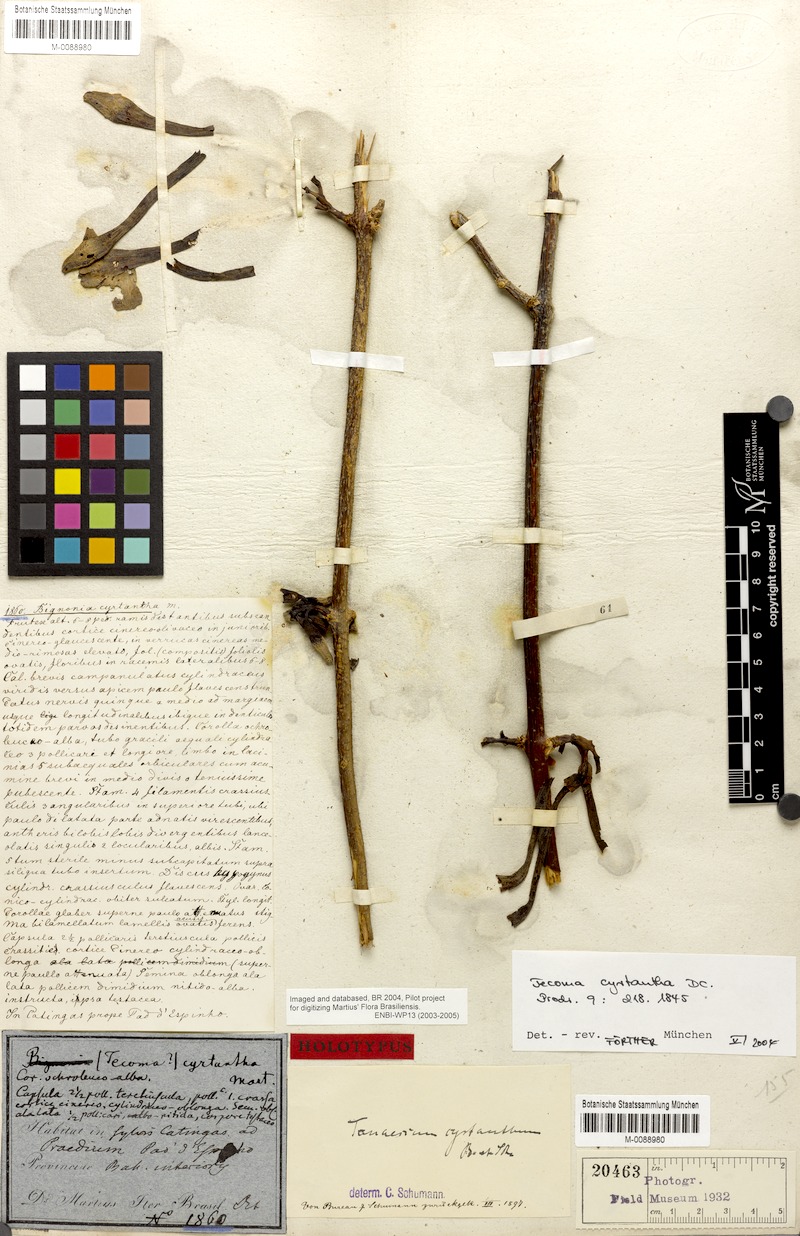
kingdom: Plantae
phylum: Tracheophyta
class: Magnoliopsida
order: Lamiales
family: Bignoniaceae
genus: Tanaecium
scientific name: Tanaecium cyrtanthum
